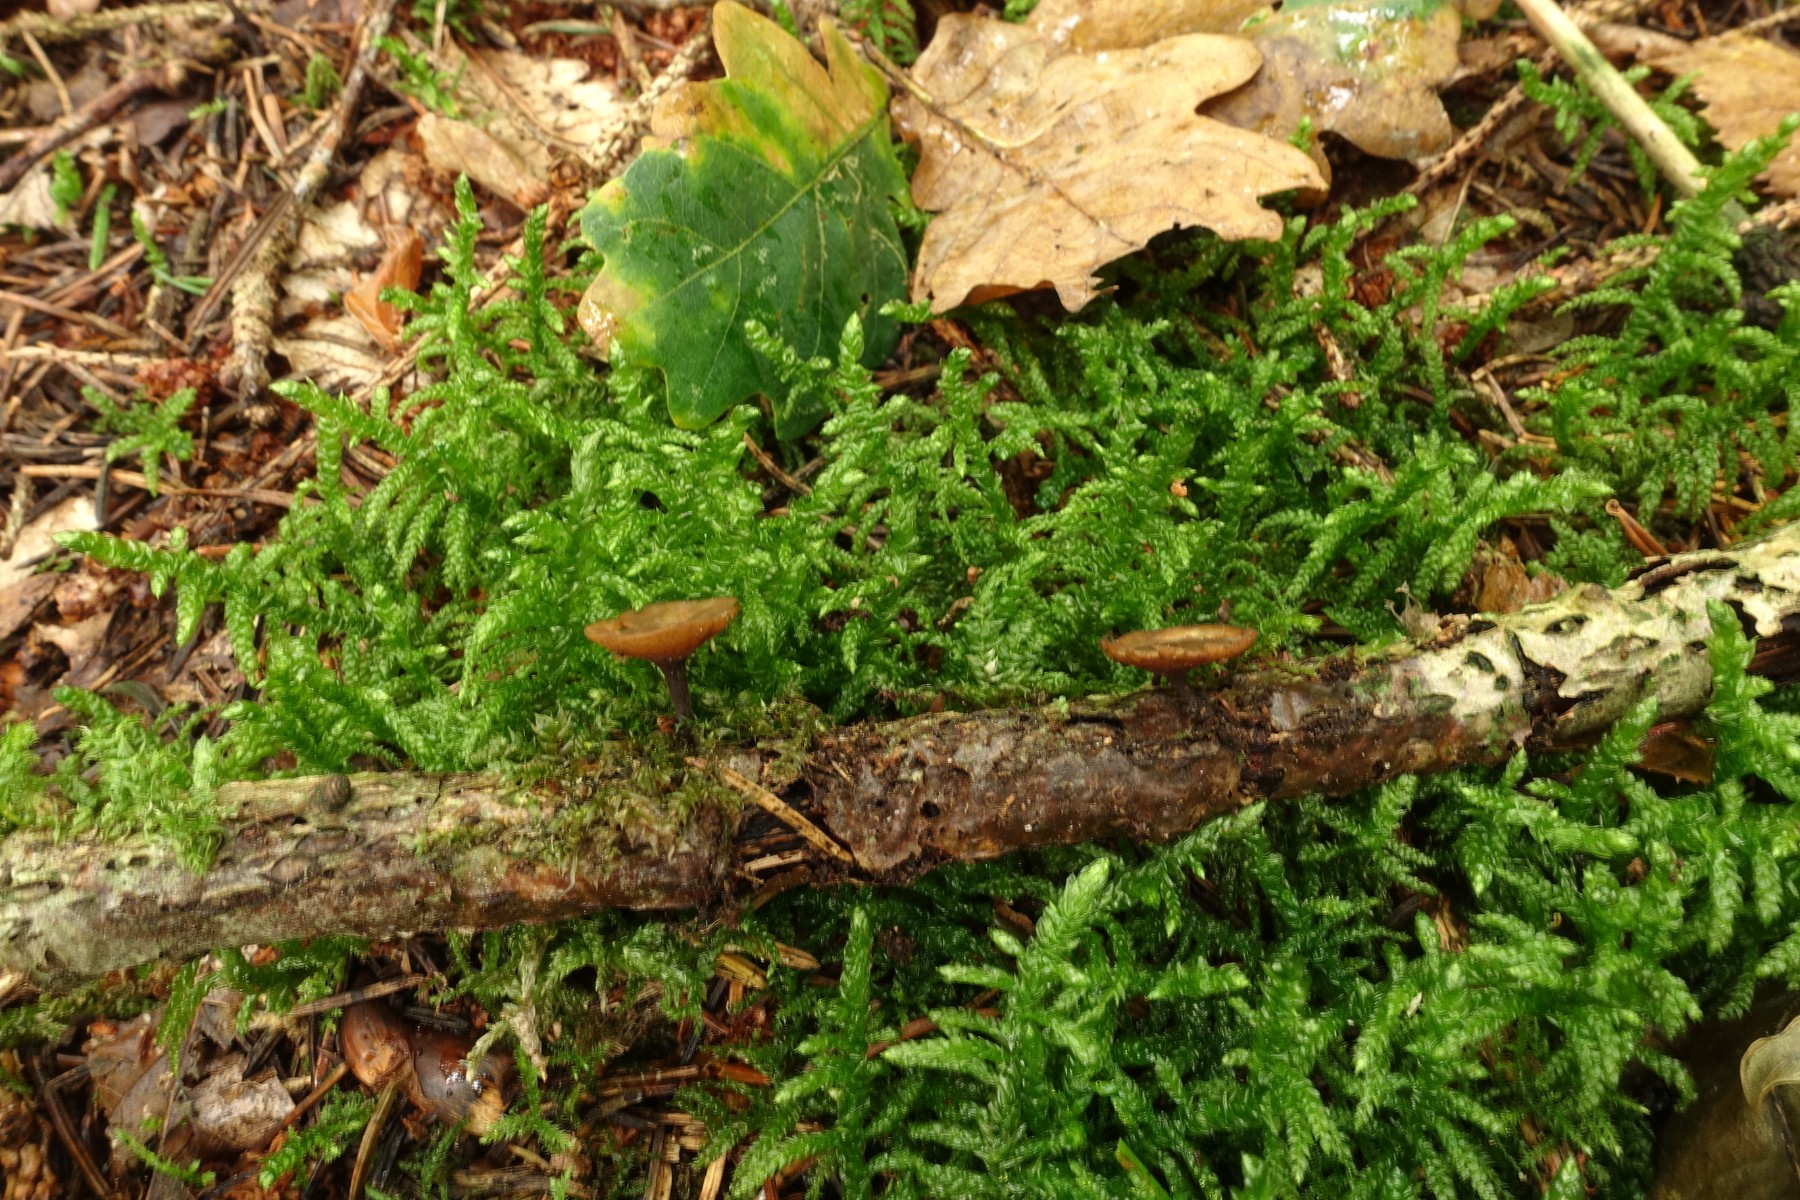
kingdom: Fungi
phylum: Ascomycota
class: Leotiomycetes
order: Helotiales
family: Rutstroemiaceae
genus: Rutstroemia
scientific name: Rutstroemia firma
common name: gren-brunskive
